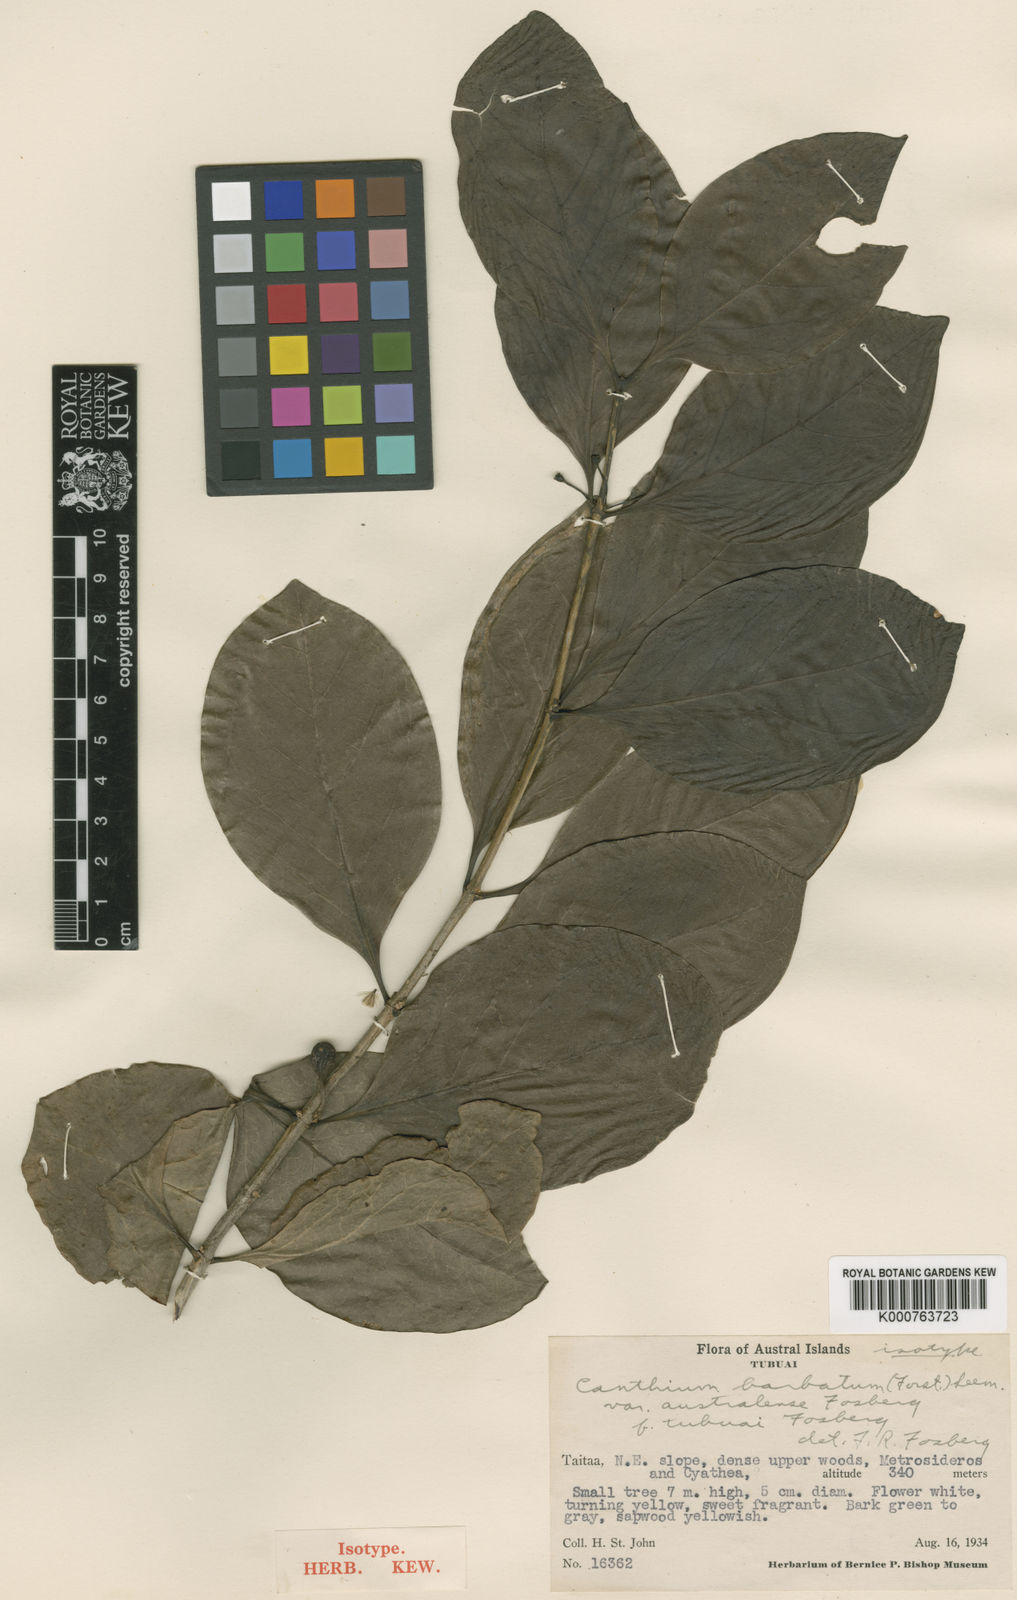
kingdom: Plantae
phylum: Tracheophyta
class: Magnoliopsida
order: Gentianales
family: Rubiaceae
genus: Cyclophyllum
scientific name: Cyclophyllum
